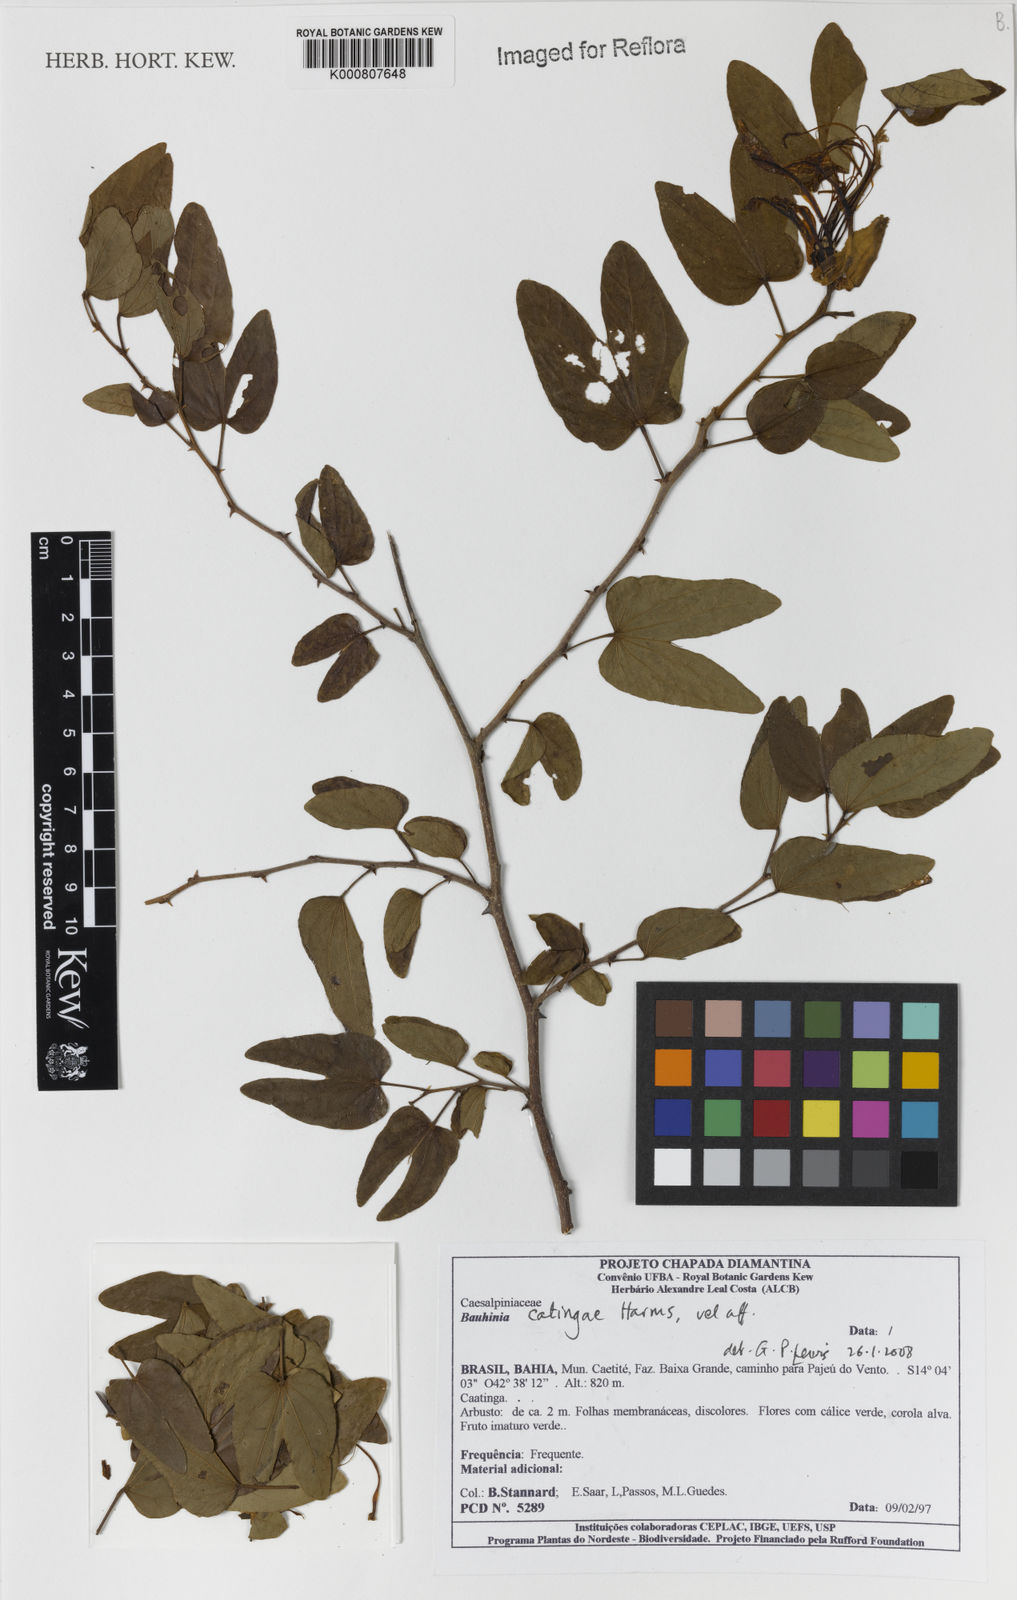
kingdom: Plantae
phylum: Tracheophyta
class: Magnoliopsida
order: Fabales
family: Fabaceae
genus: Bauhinia
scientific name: Bauhinia catingae
